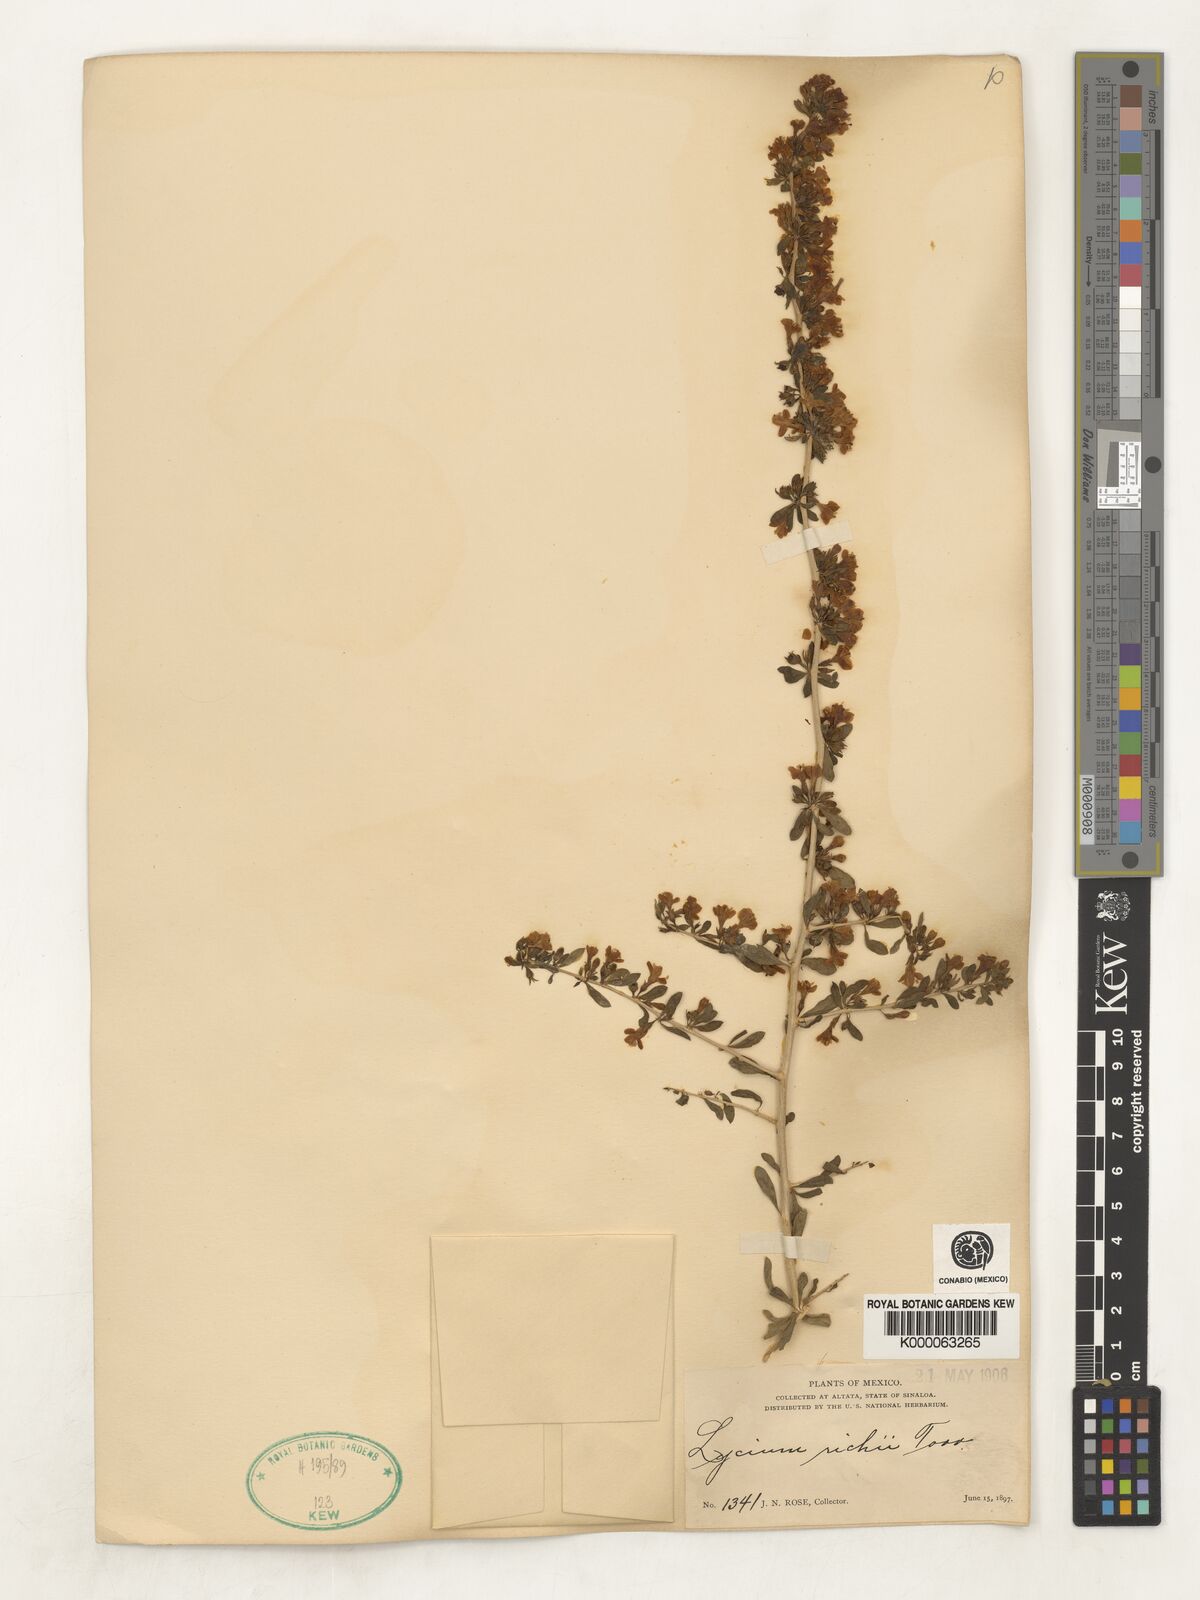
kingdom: Plantae
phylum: Tracheophyta
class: Magnoliopsida
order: Solanales
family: Solanaceae
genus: Lycium
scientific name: Lycium brevipes
